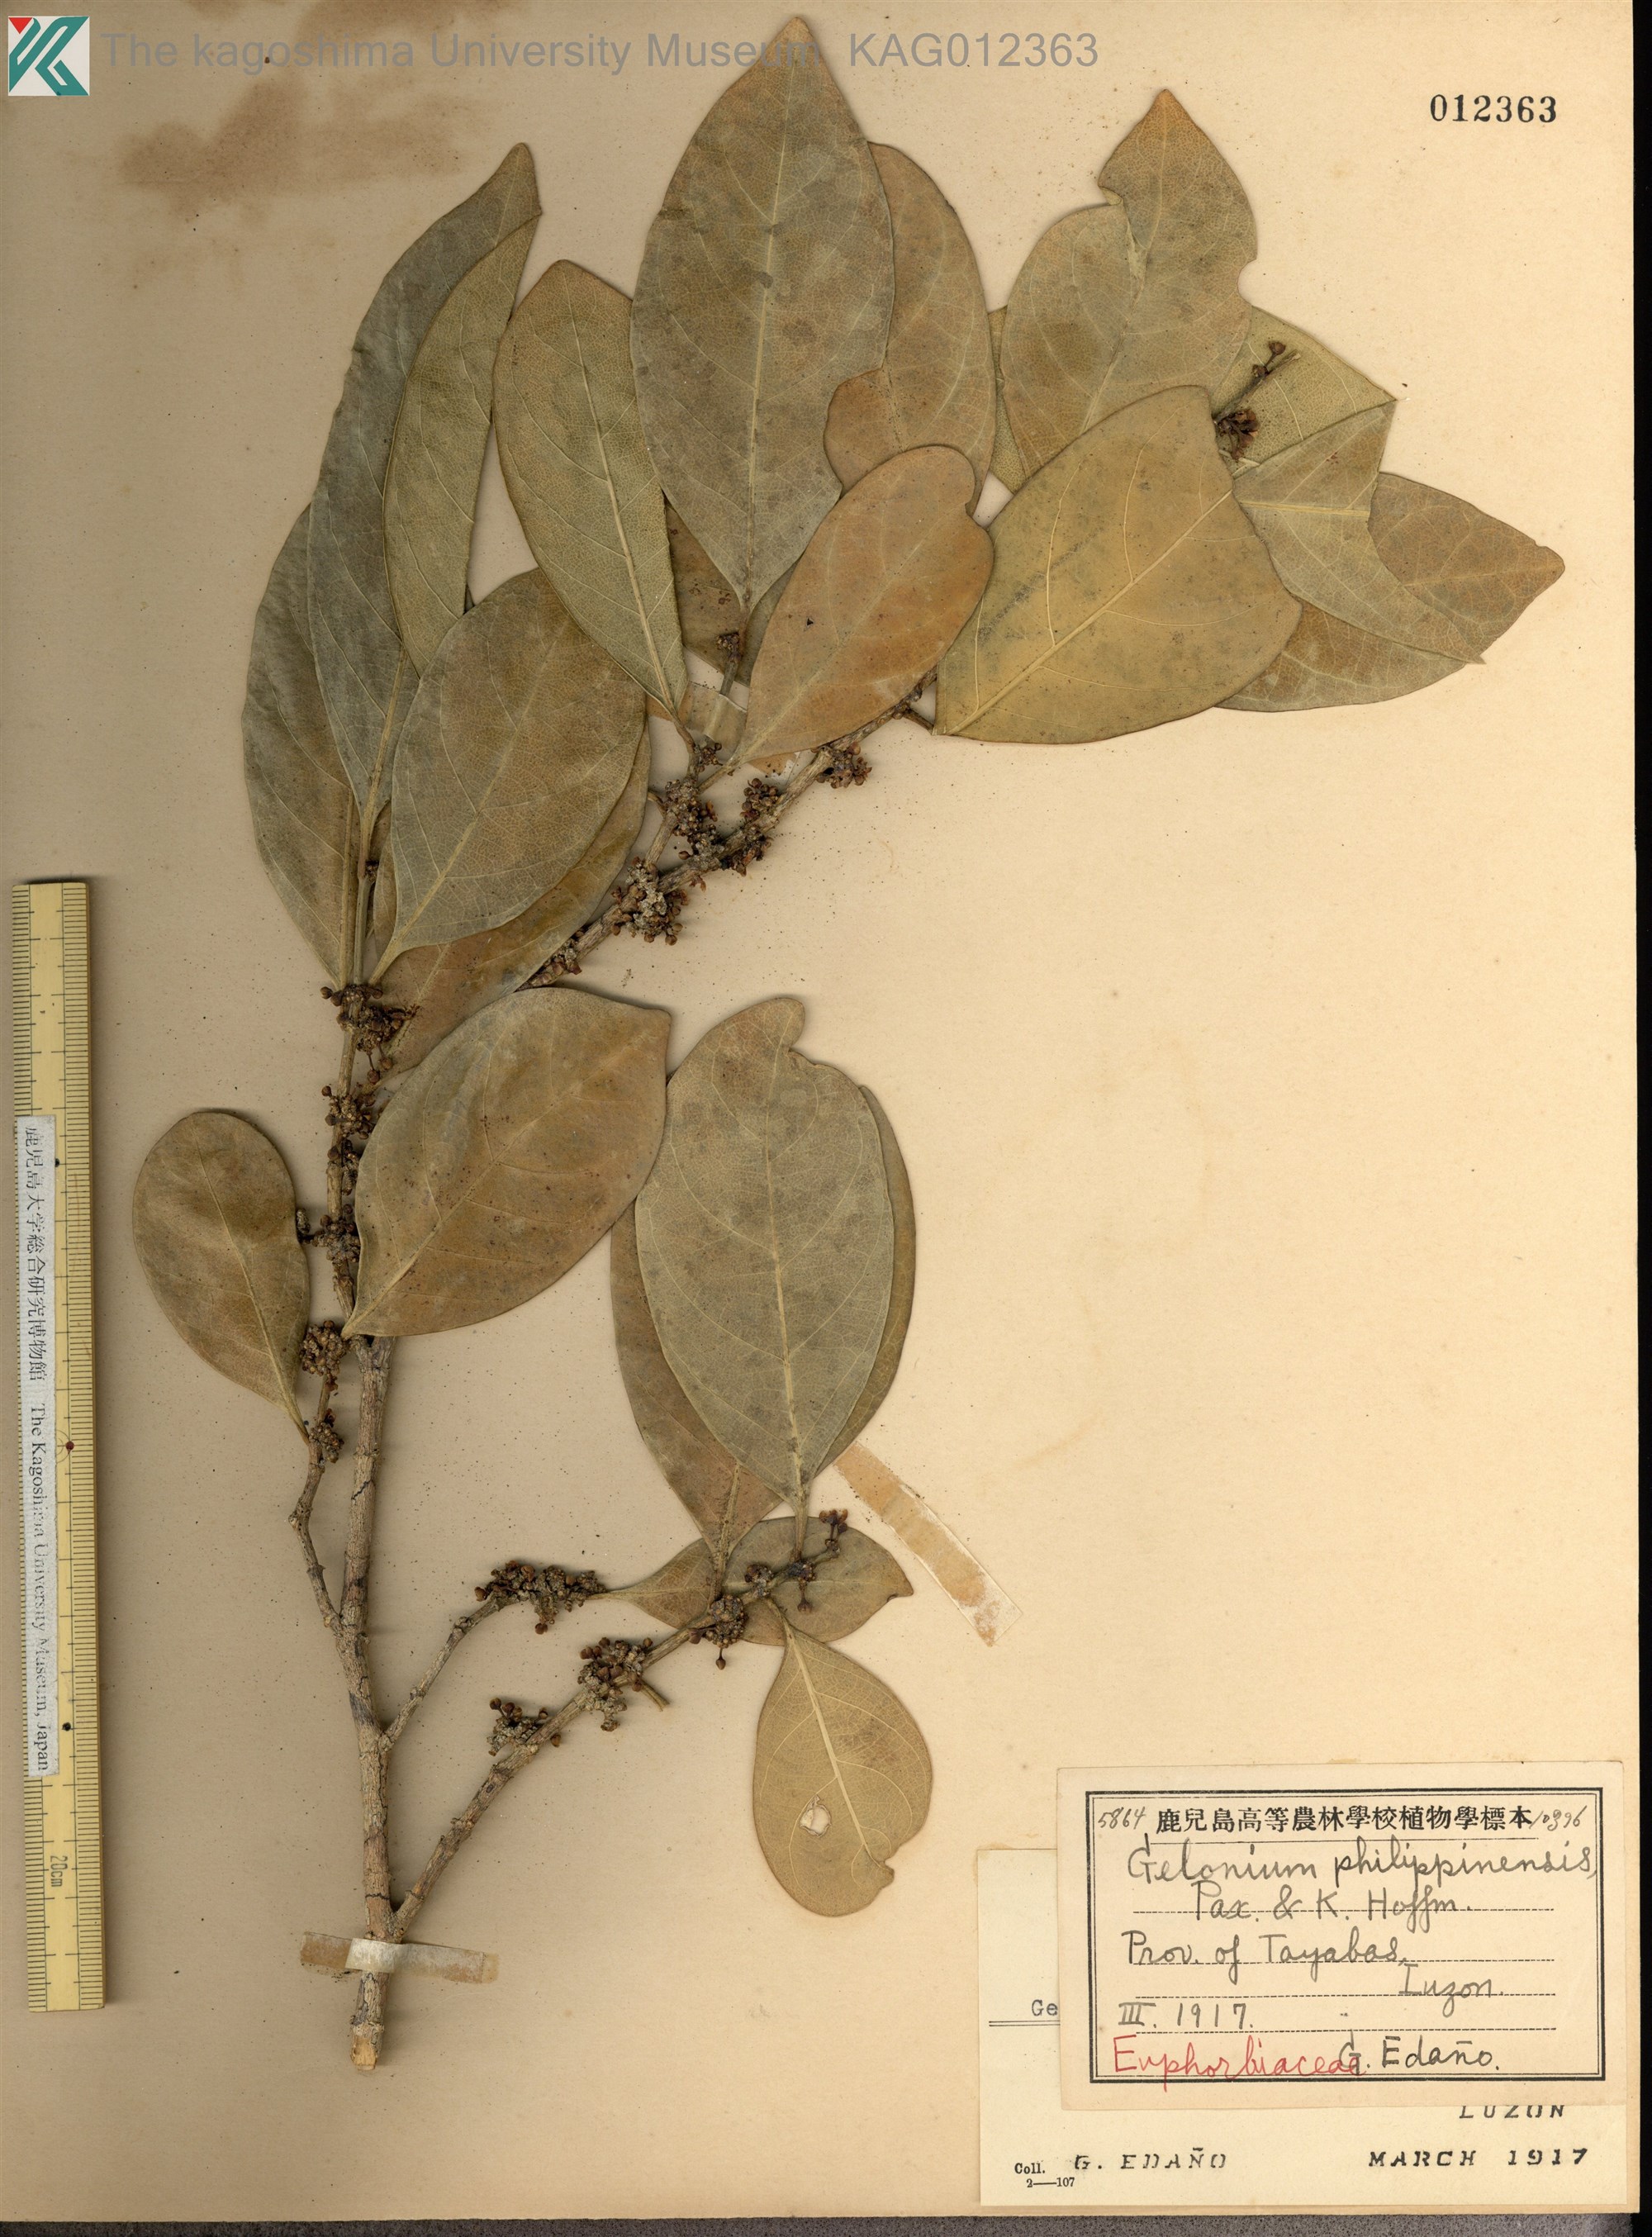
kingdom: Plantae
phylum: Tracheophyta
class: Magnoliopsida
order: Malpighiales
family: Phyllanthaceae
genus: Glochidion
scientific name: Glochidion philippicum
